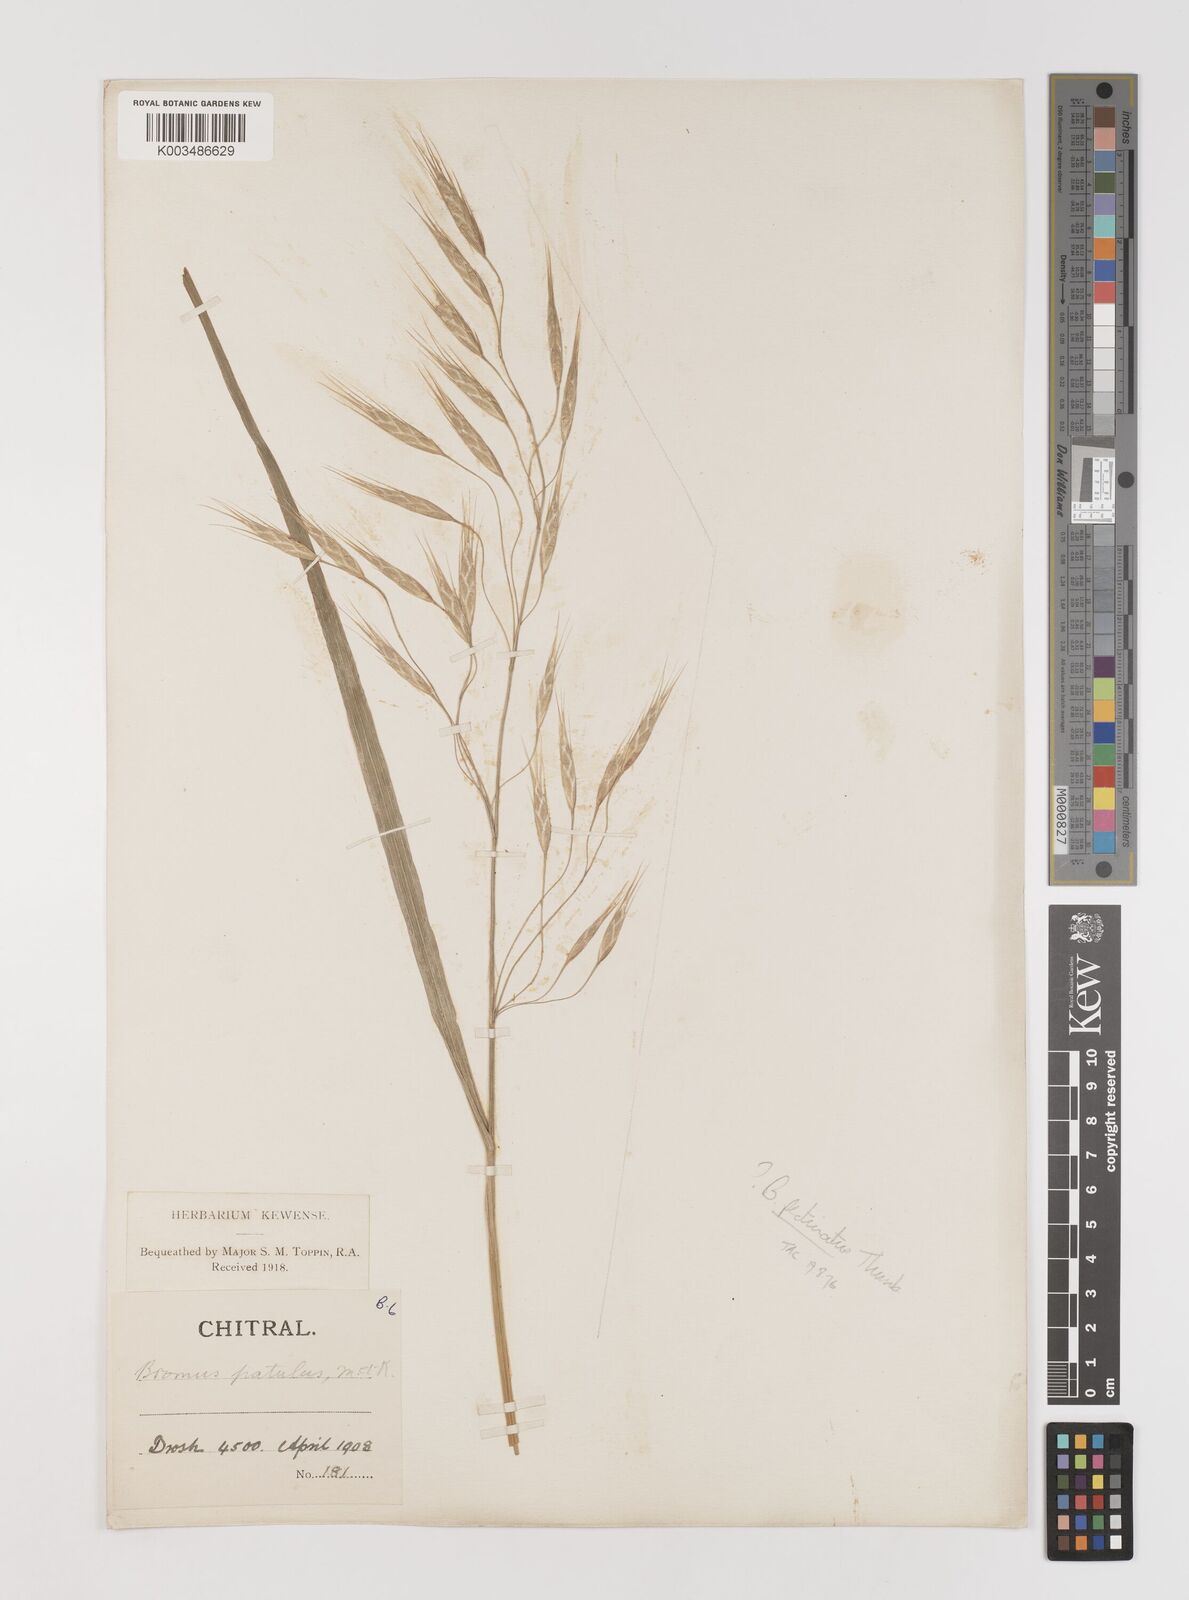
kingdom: Plantae
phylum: Tracheophyta
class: Liliopsida
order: Poales
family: Poaceae
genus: Bromus
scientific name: Bromus pectinatus
